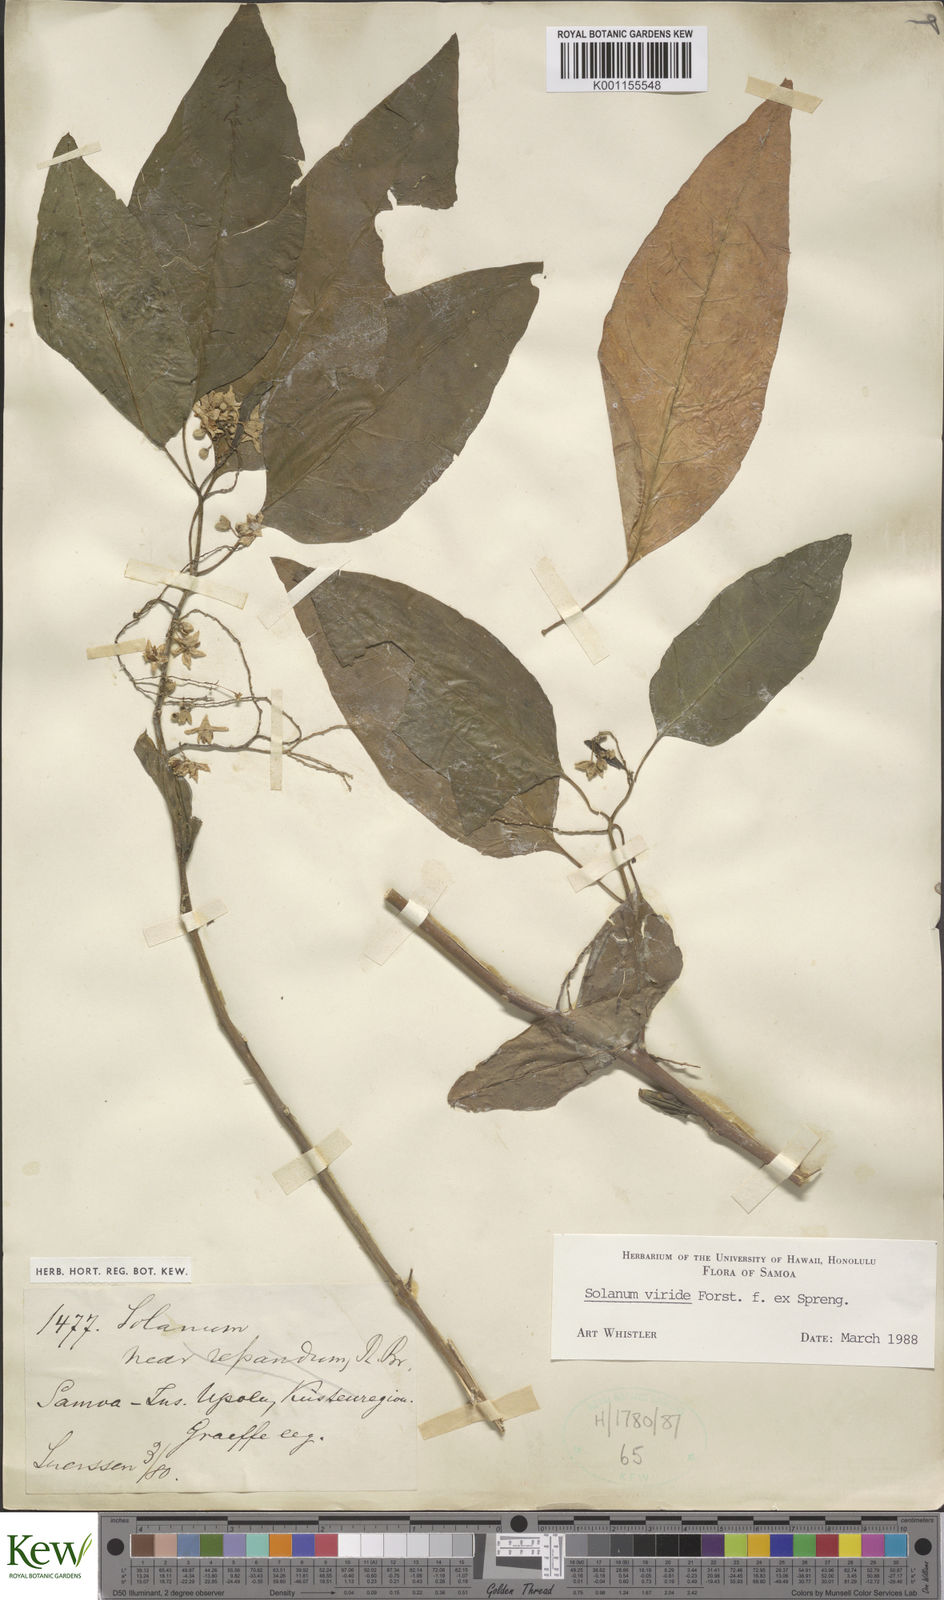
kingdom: Plantae
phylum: Tracheophyta
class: Magnoliopsida
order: Solanales
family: Solanaceae
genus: Solanum
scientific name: Solanum
